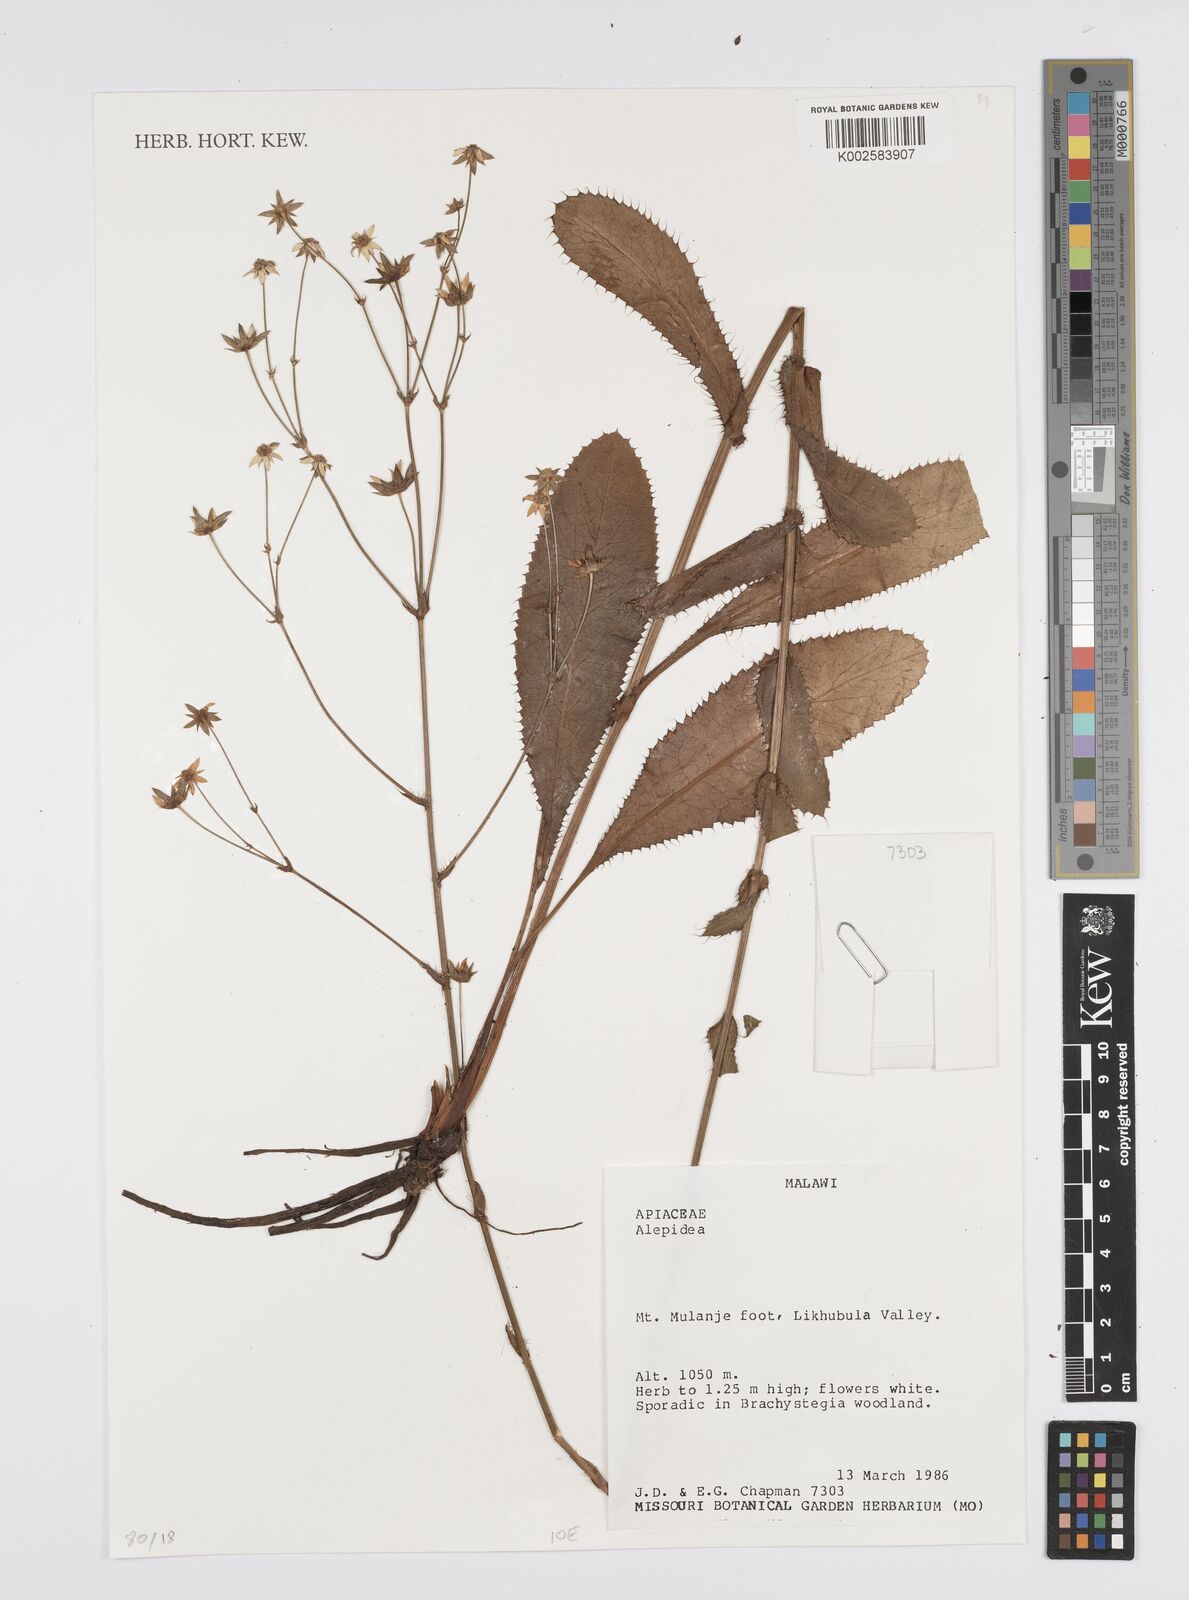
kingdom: Plantae
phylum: Tracheophyta
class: Magnoliopsida
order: Apiales
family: Apiaceae
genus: Alepidea
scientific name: Alepidea
